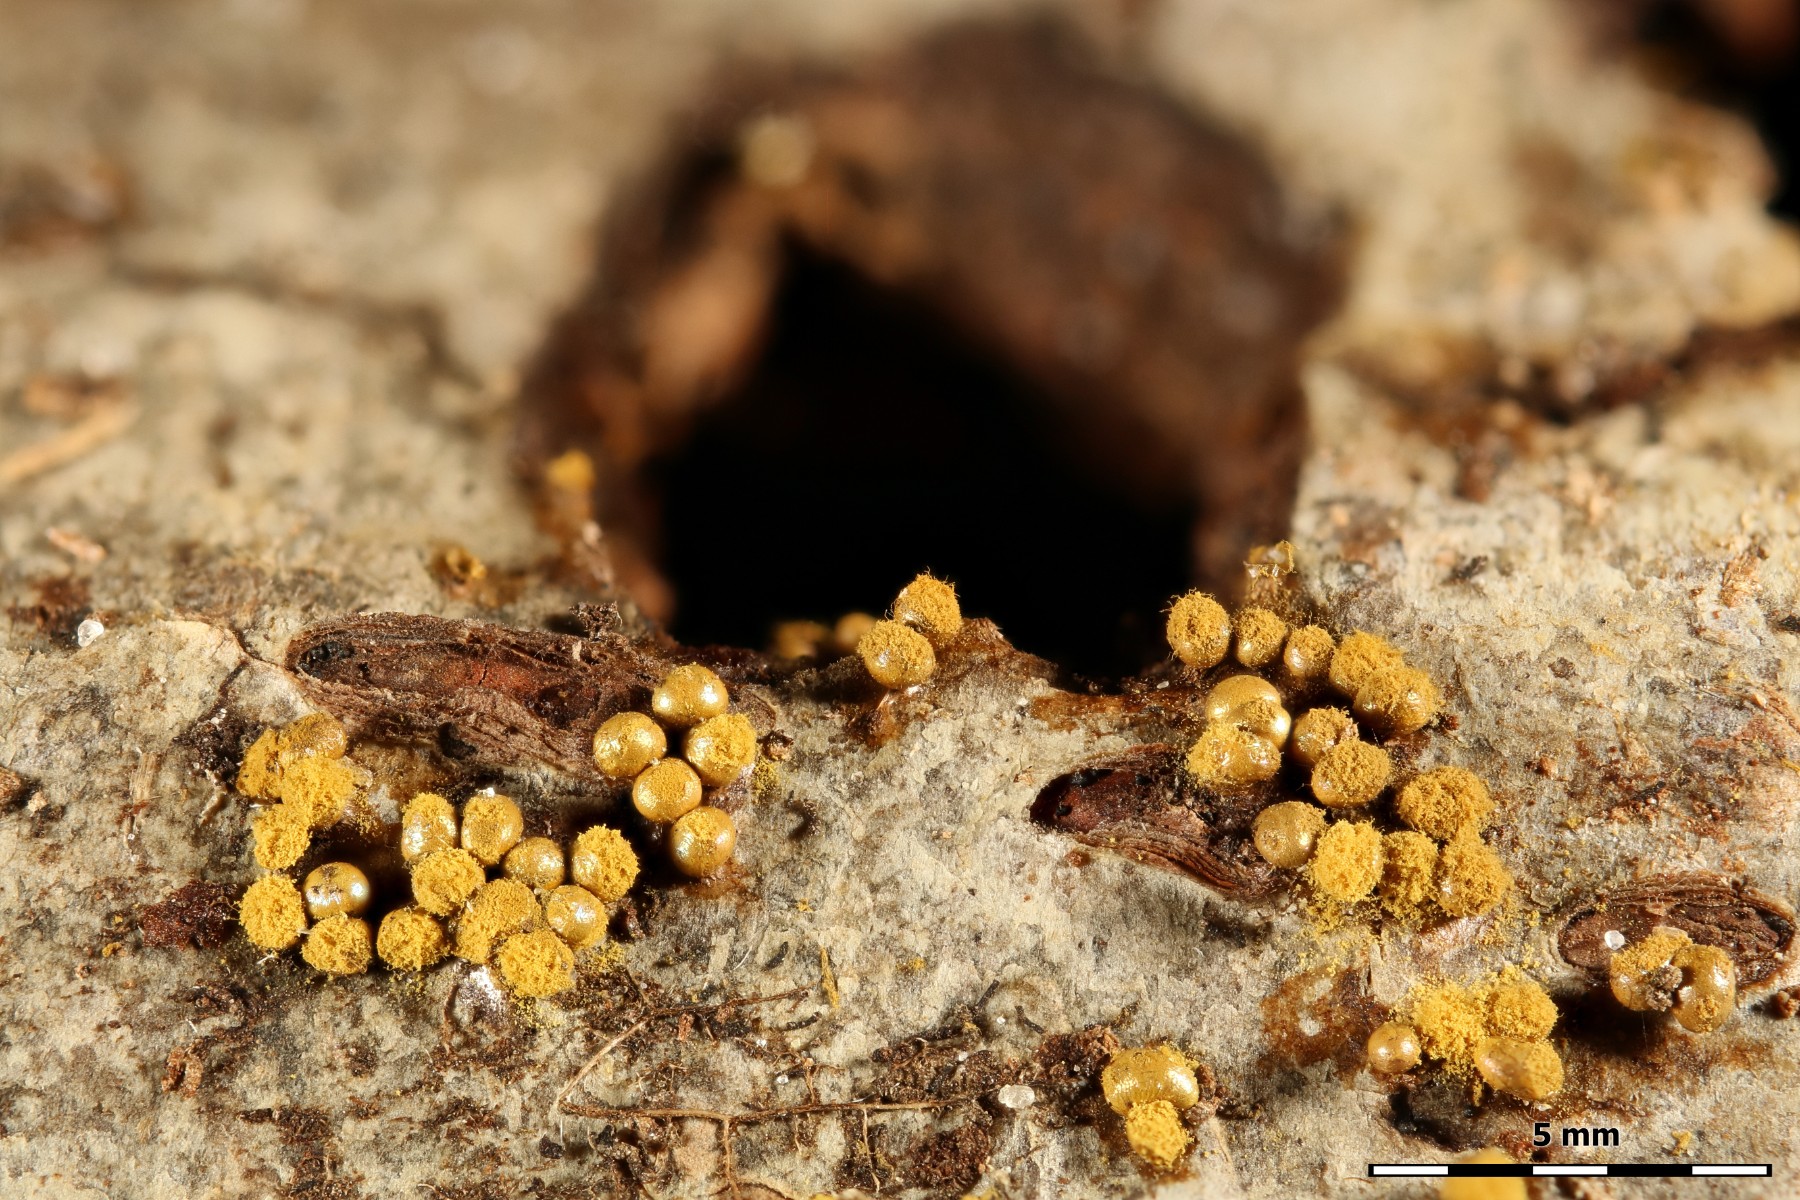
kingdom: Protozoa
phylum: Mycetozoa
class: Myxomycetes
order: Trichiales
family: Trichiaceae
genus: Trichia
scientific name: Trichia varia
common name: foranderlig hårbold
